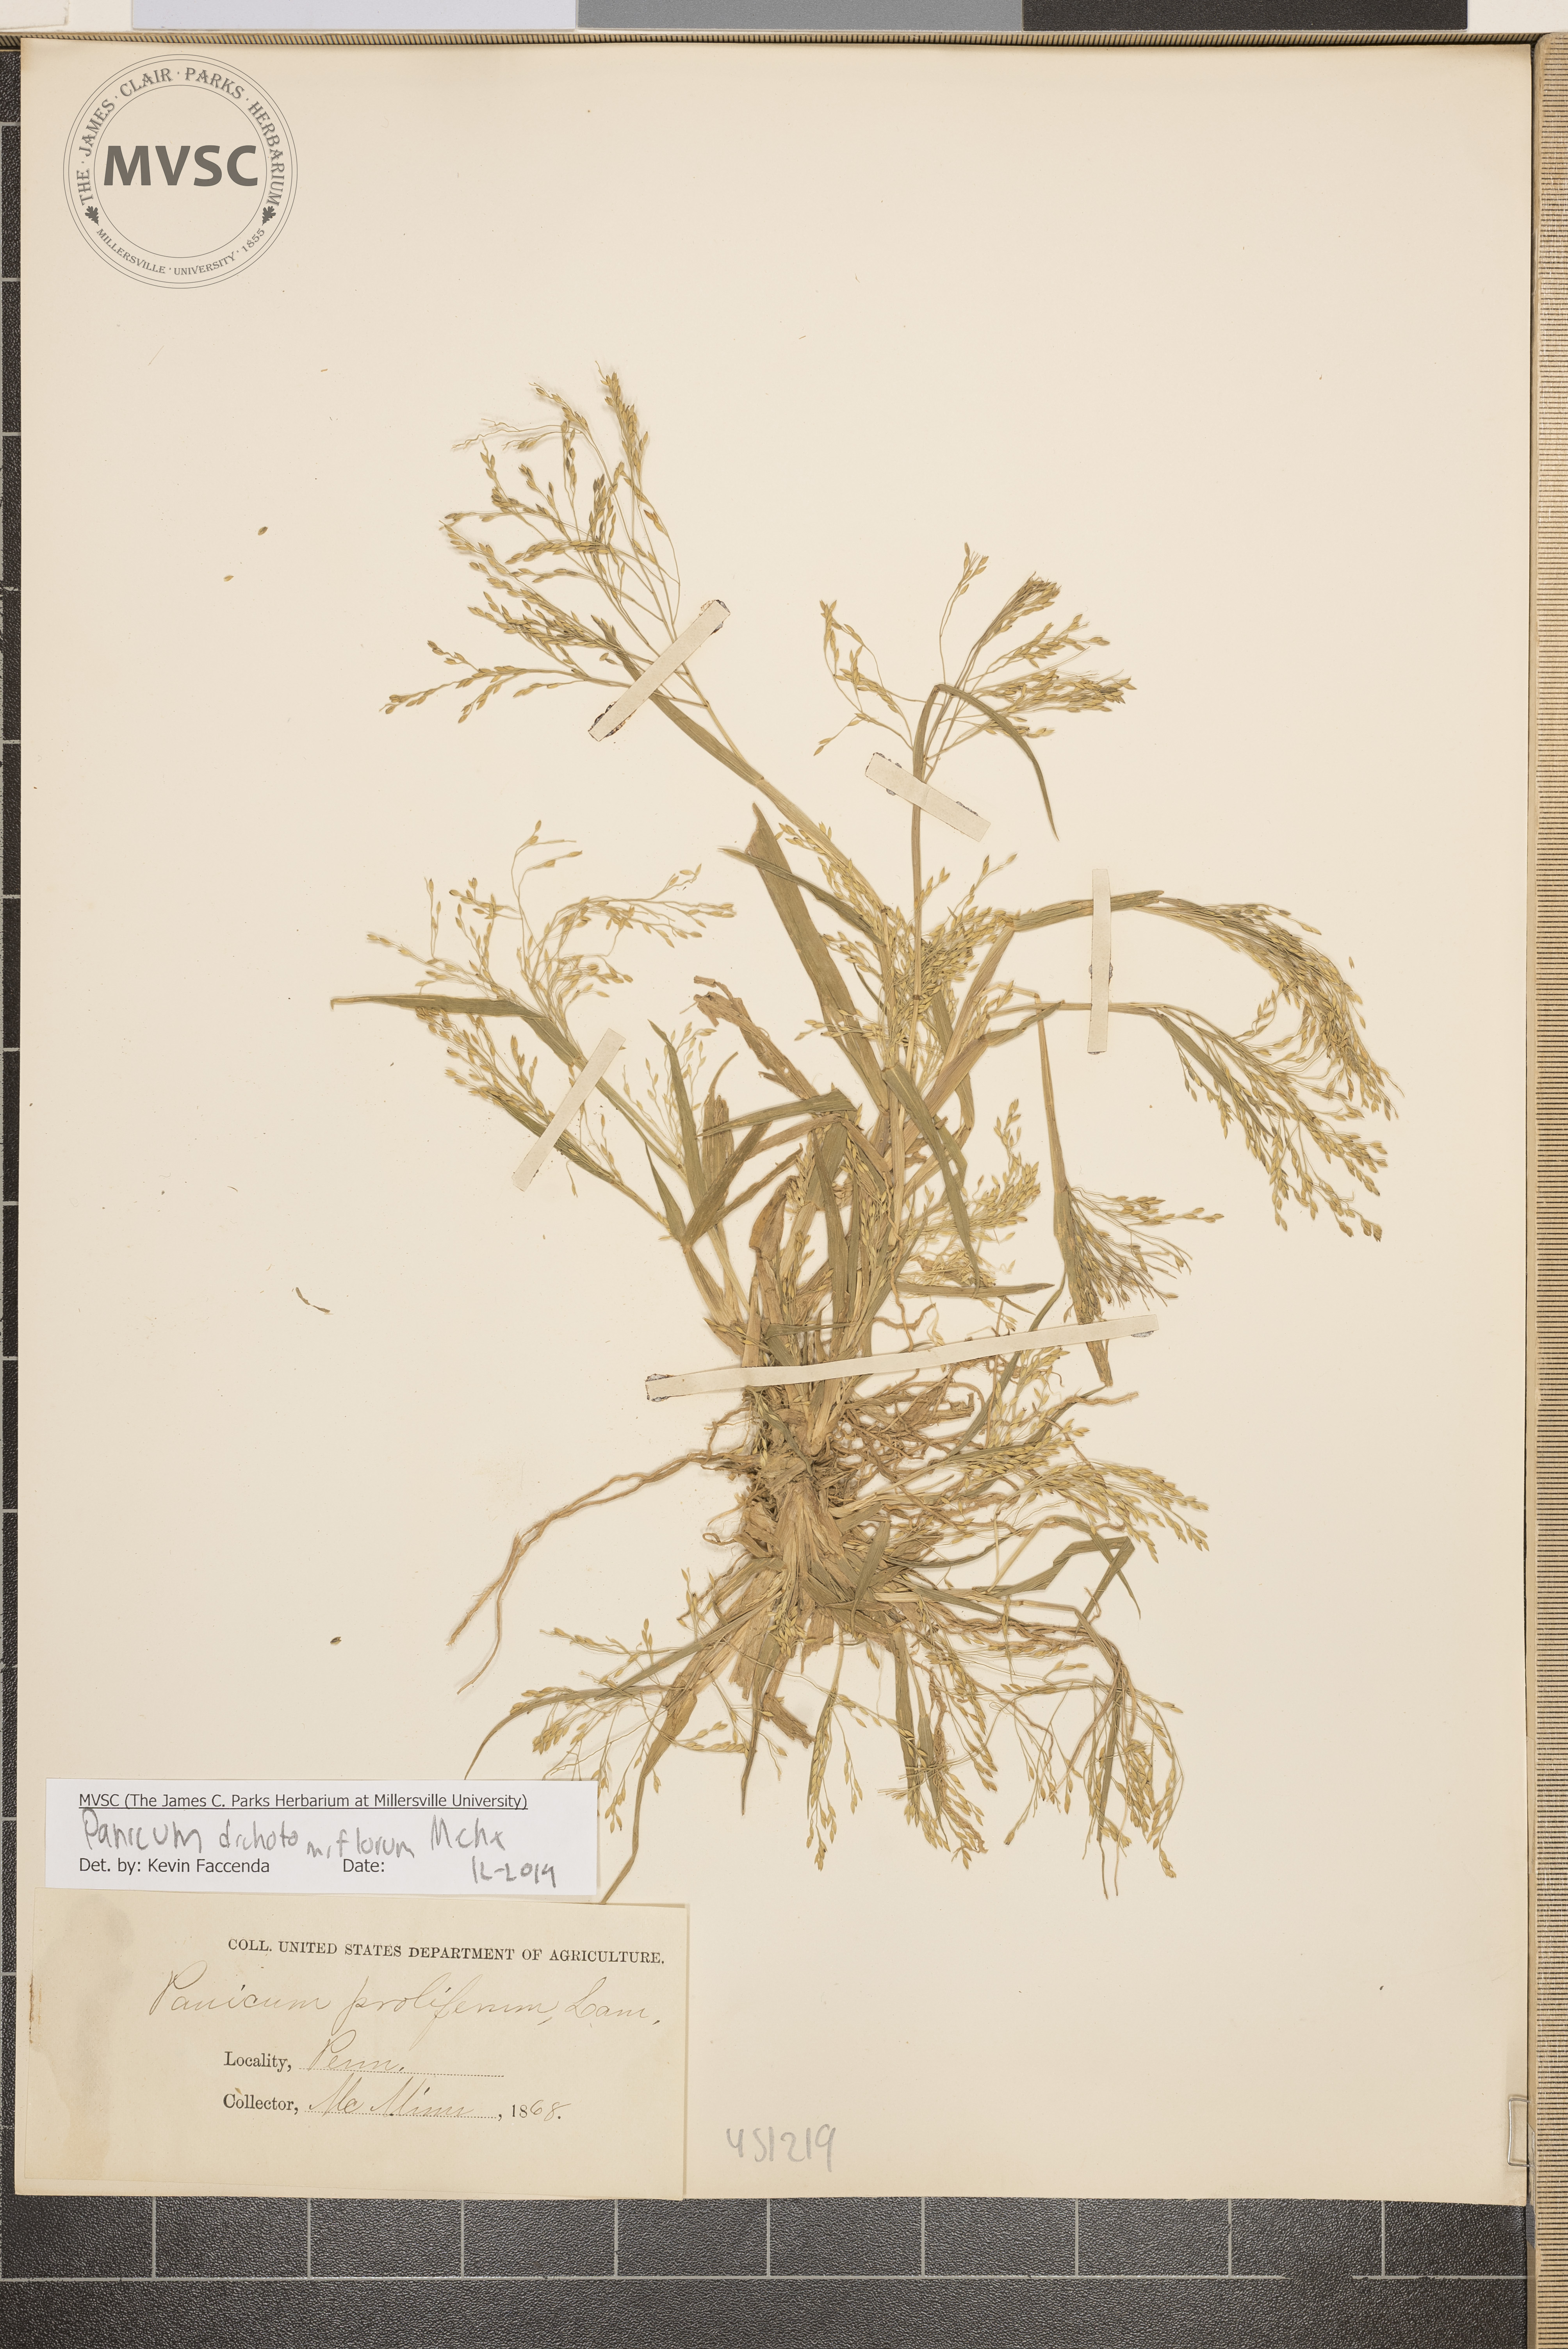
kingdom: Plantae
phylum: Tracheophyta
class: Liliopsida
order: Poales
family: Poaceae
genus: Panicum
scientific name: Panicum dichotomiflorum
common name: Autumn millet
